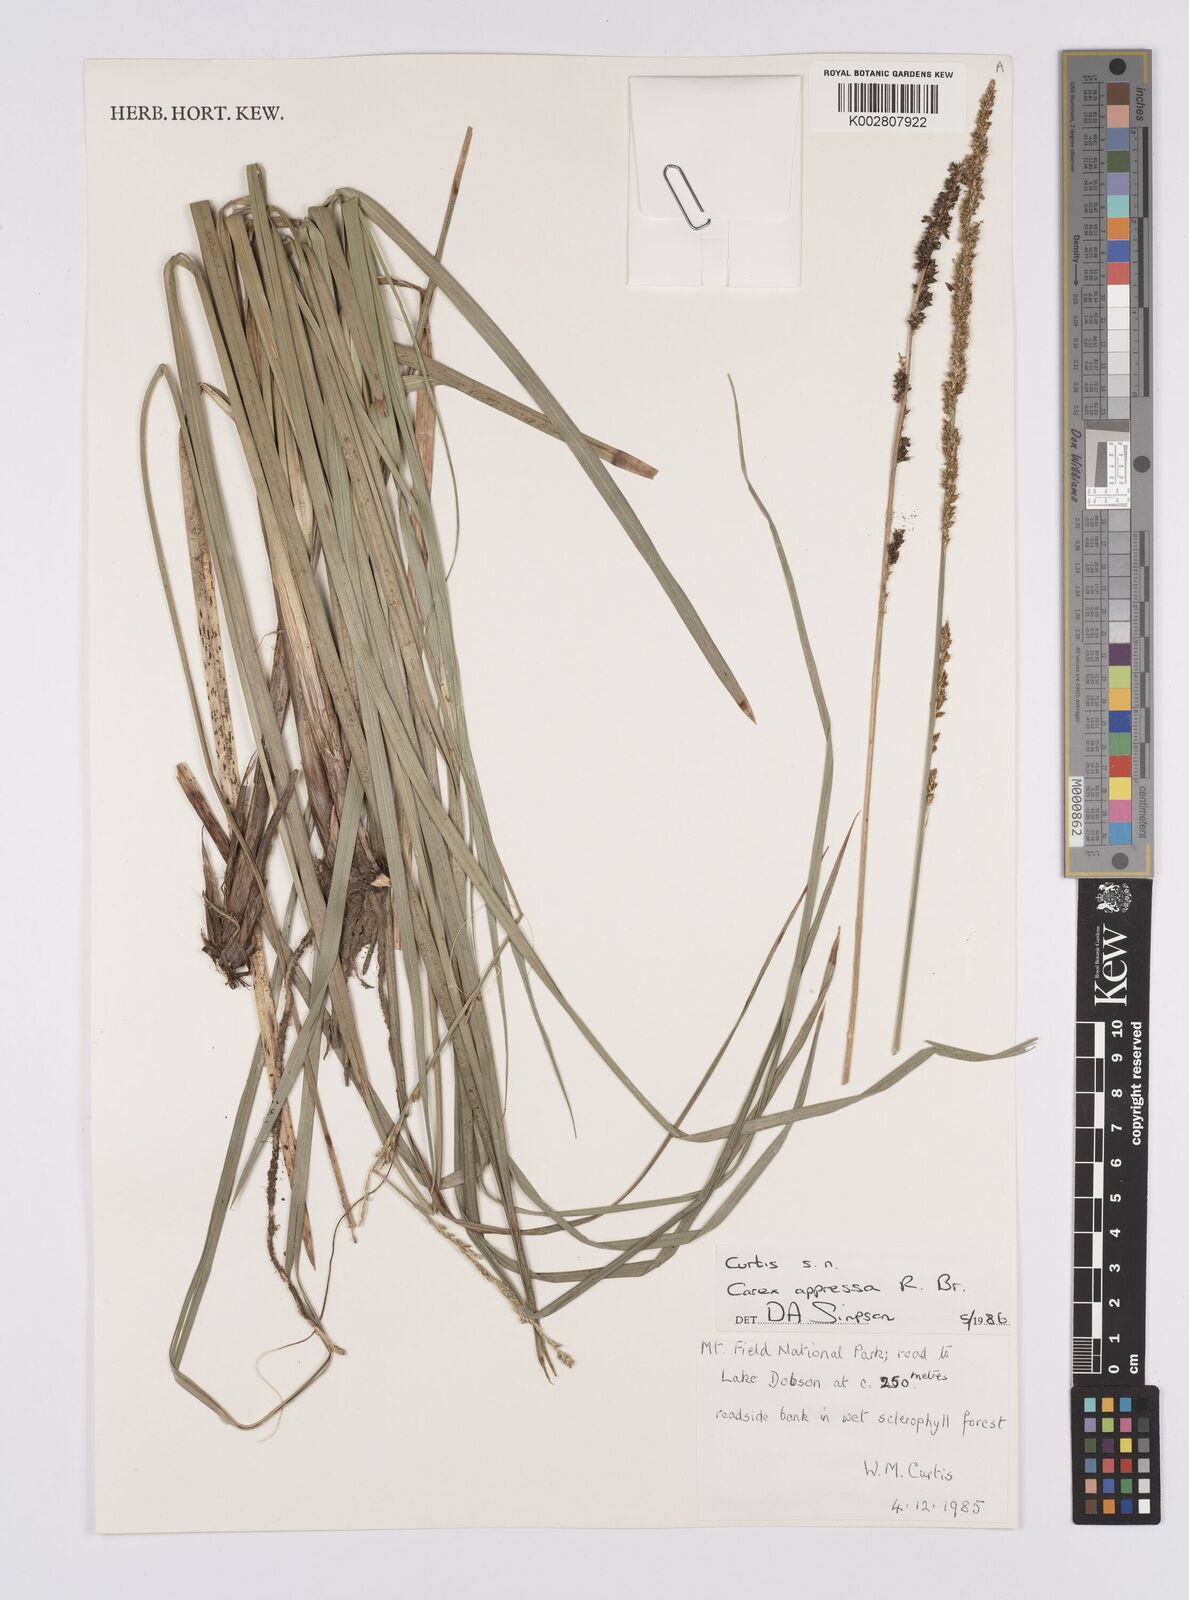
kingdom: Plantae
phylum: Tracheophyta
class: Liliopsida
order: Poales
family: Cyperaceae
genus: Carex
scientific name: Carex appressa
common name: Tussock sedge
